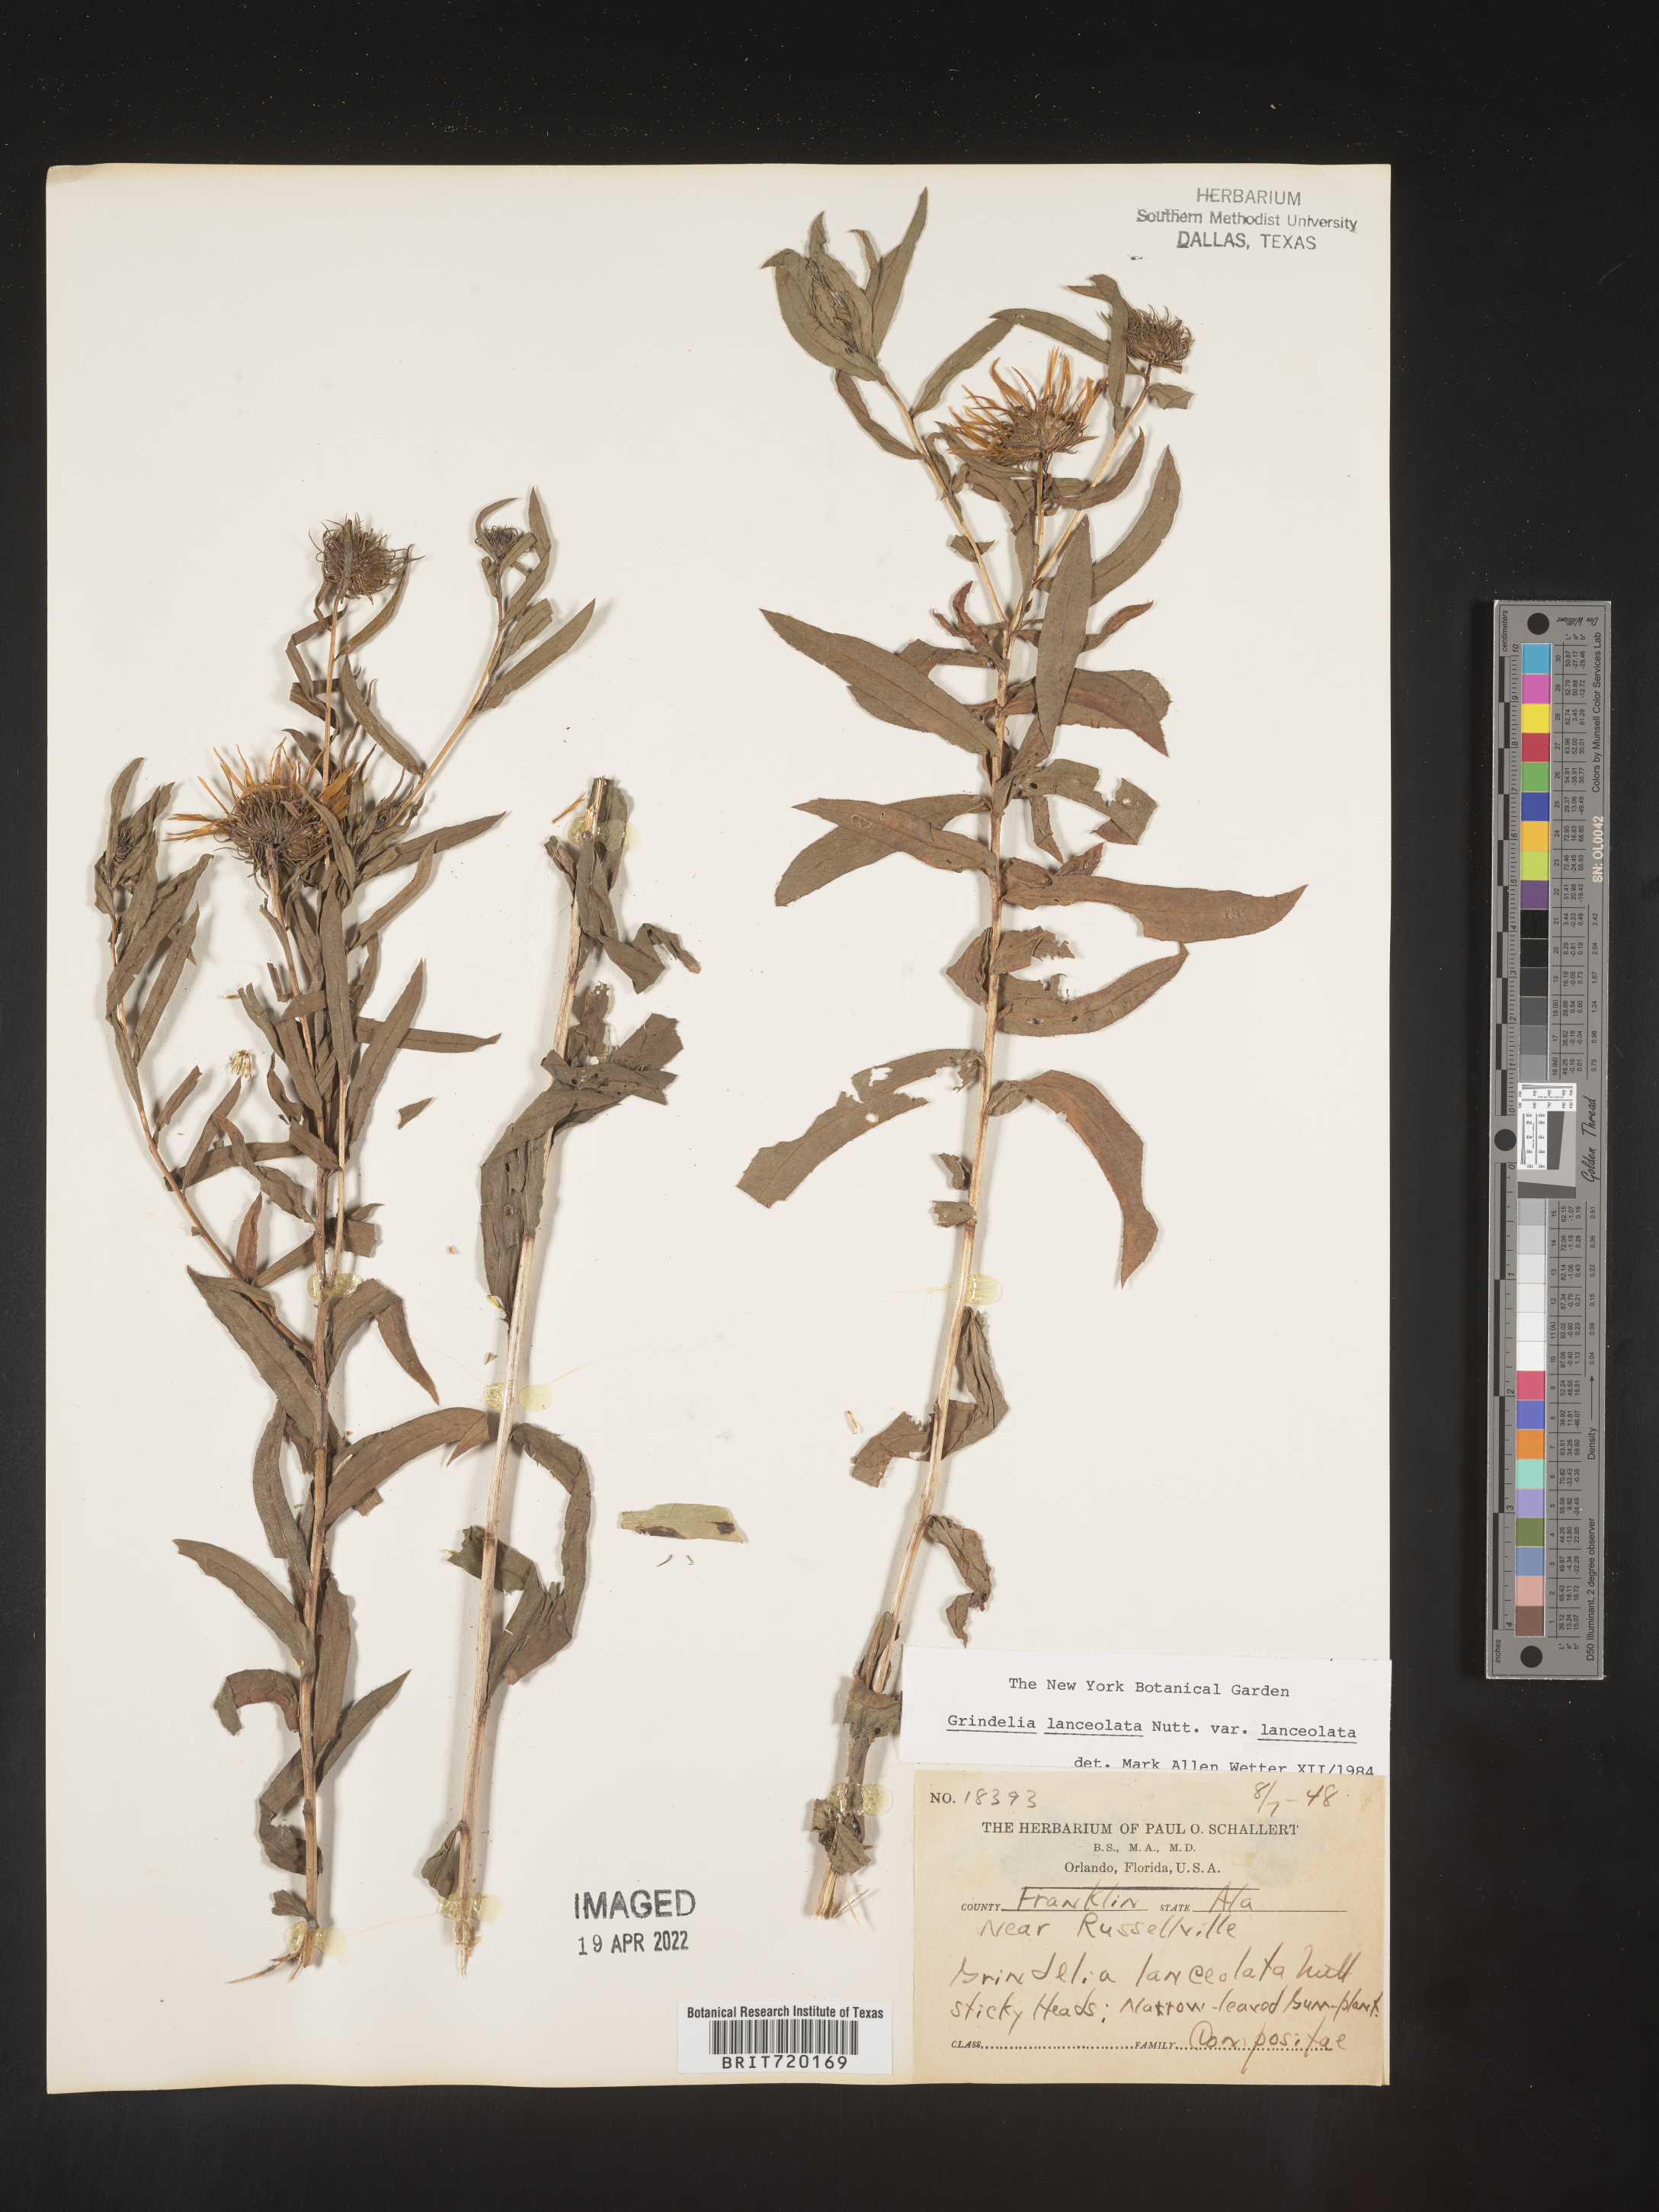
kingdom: Plantae
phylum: Tracheophyta
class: Magnoliopsida
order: Asterales
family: Asteraceae
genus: Grindelia
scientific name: Grindelia lanceolata
